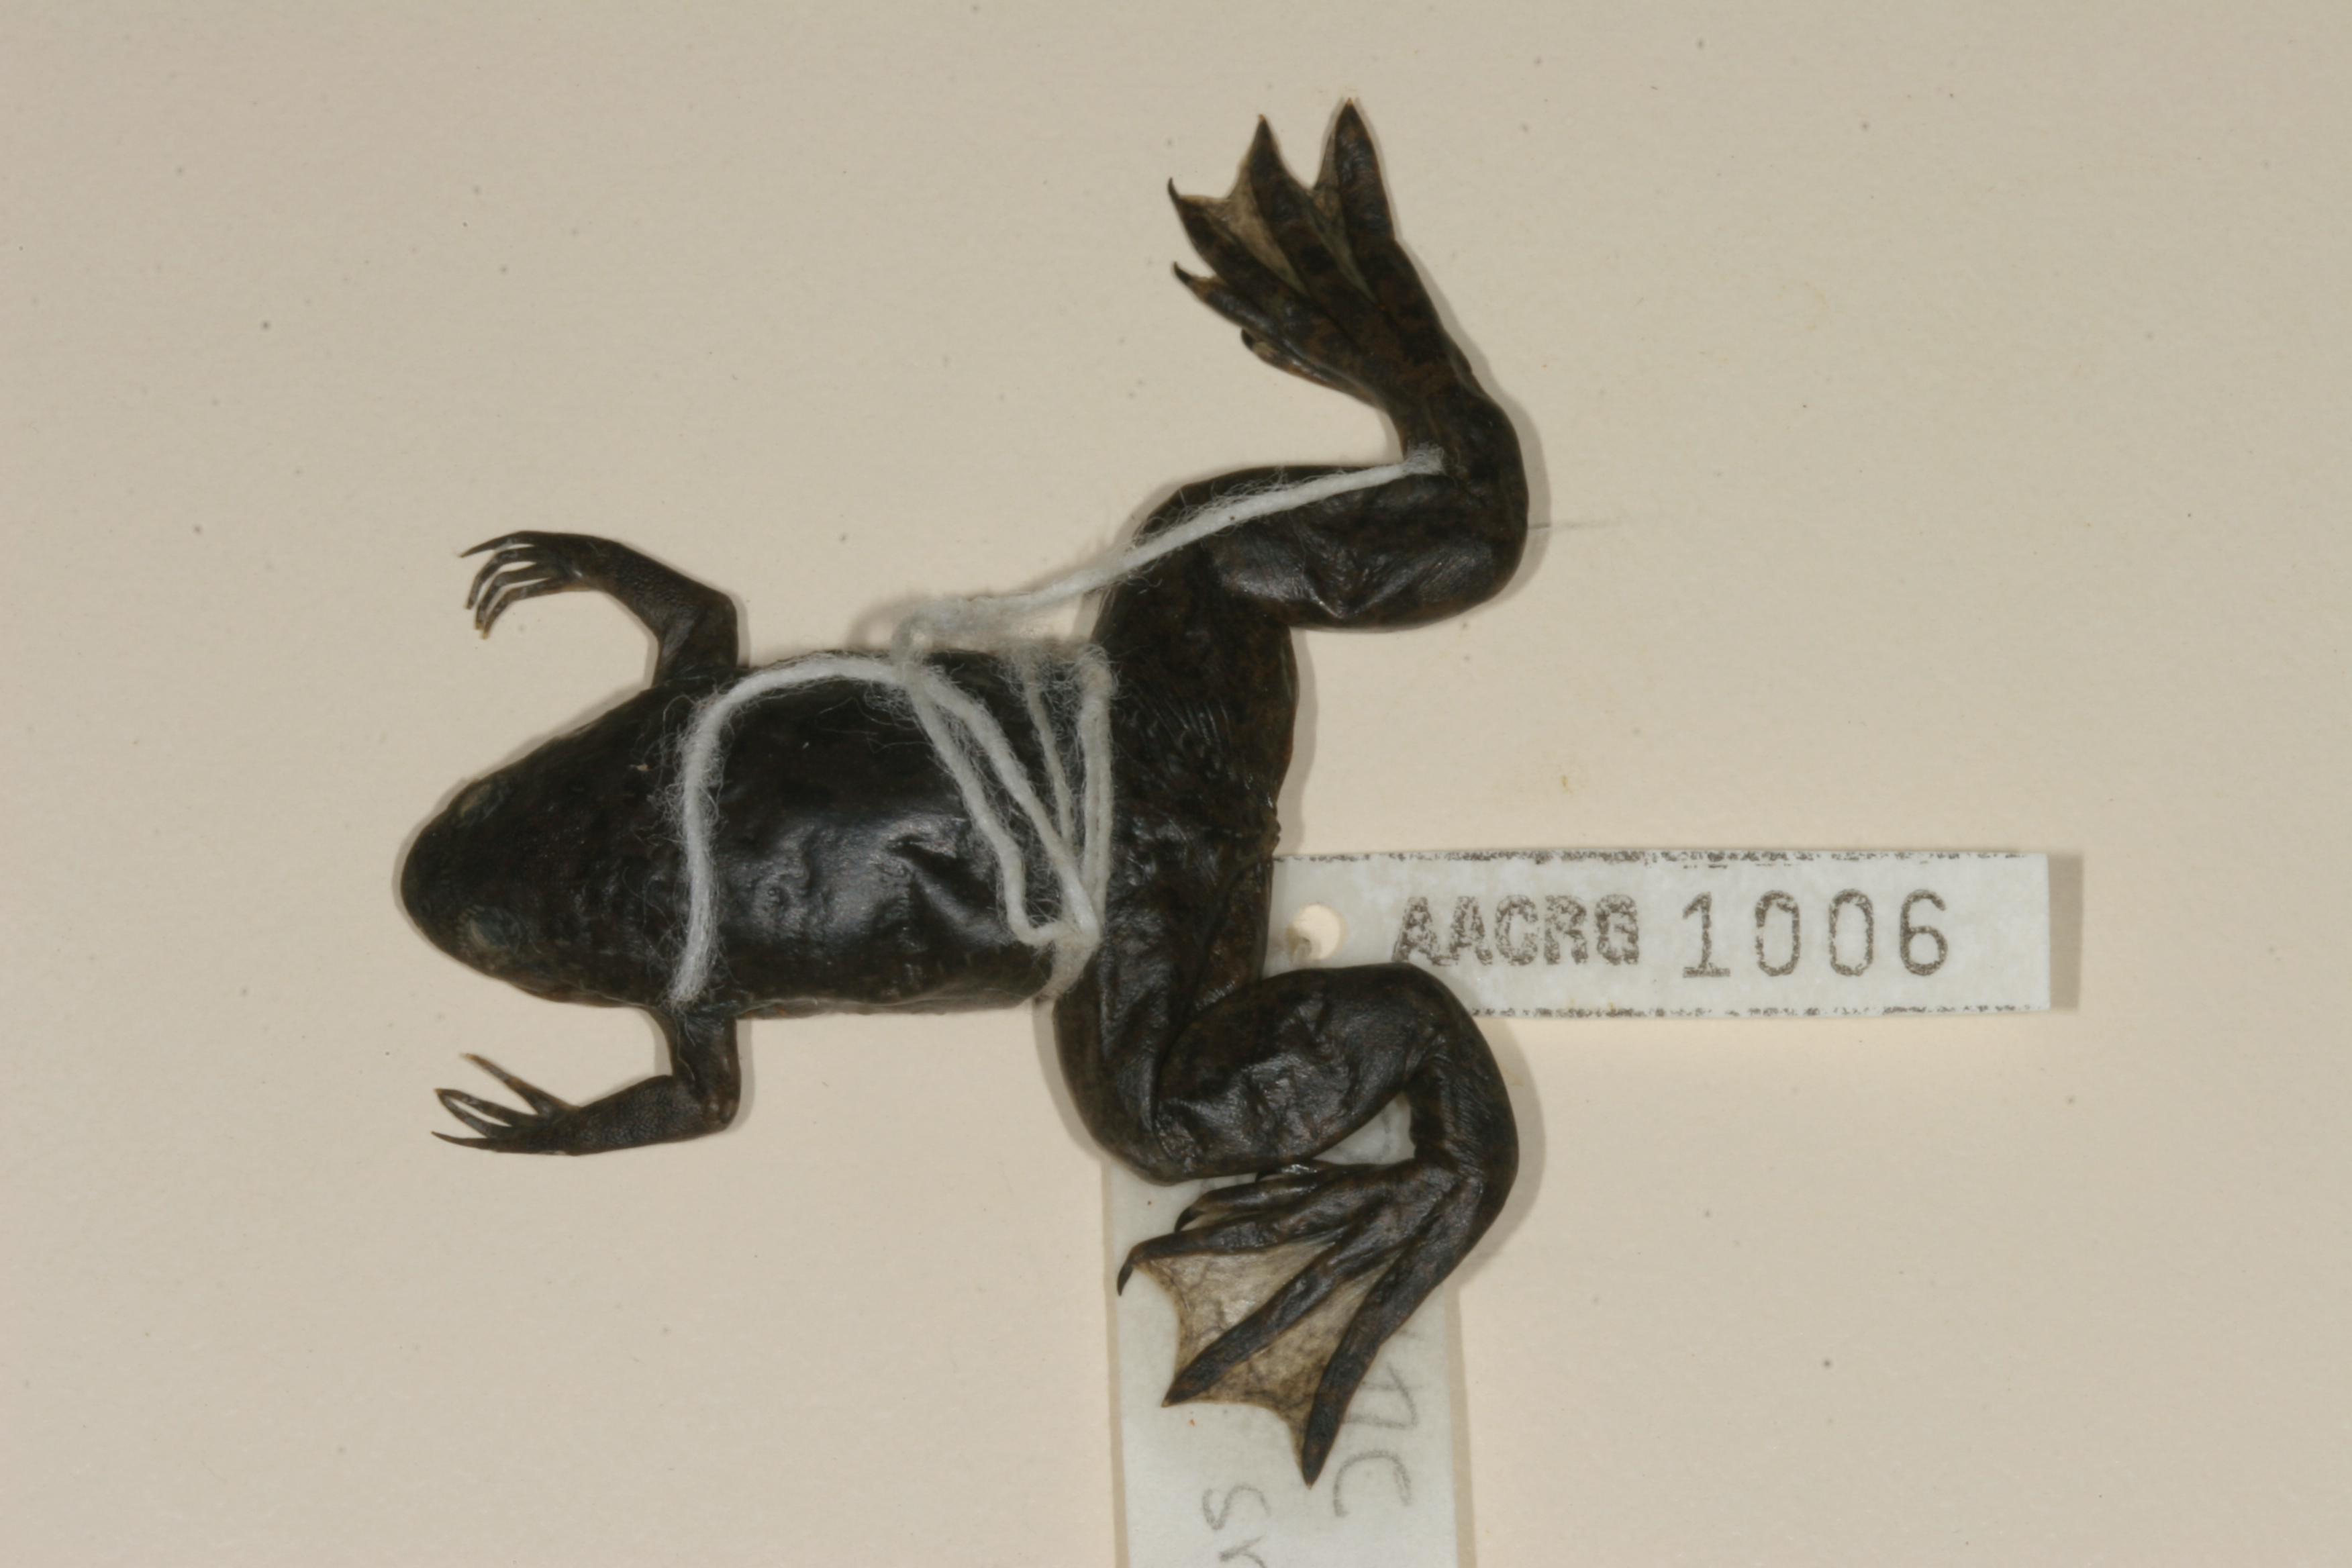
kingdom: Animalia
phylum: Chordata
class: Amphibia
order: Anura
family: Pipidae
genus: Xenopus
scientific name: Xenopus petersii
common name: Peters' clawed frog
